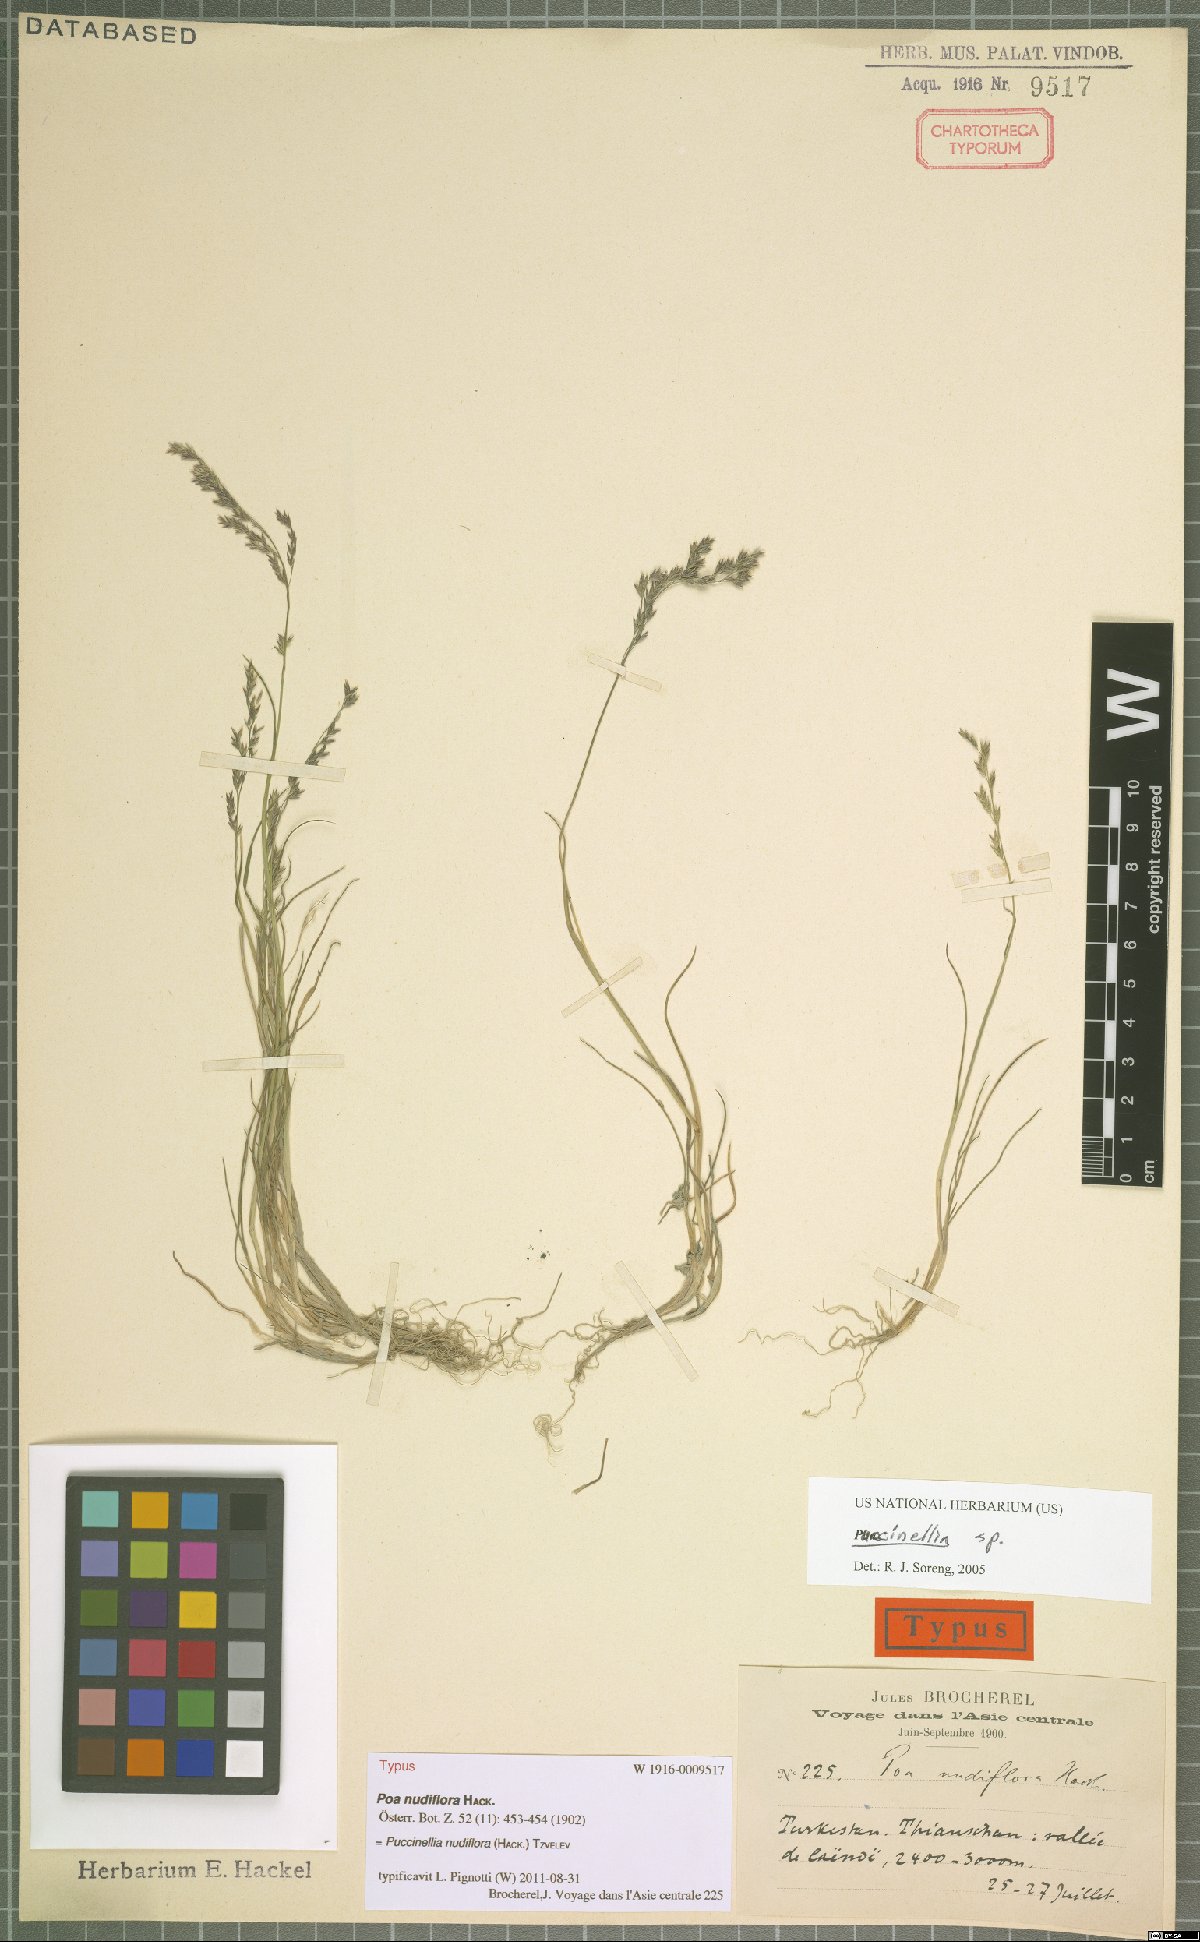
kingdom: Plantae
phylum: Tracheophyta
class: Liliopsida
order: Poales
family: Poaceae
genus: Puccinellia
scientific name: Puccinellia nudiflora
